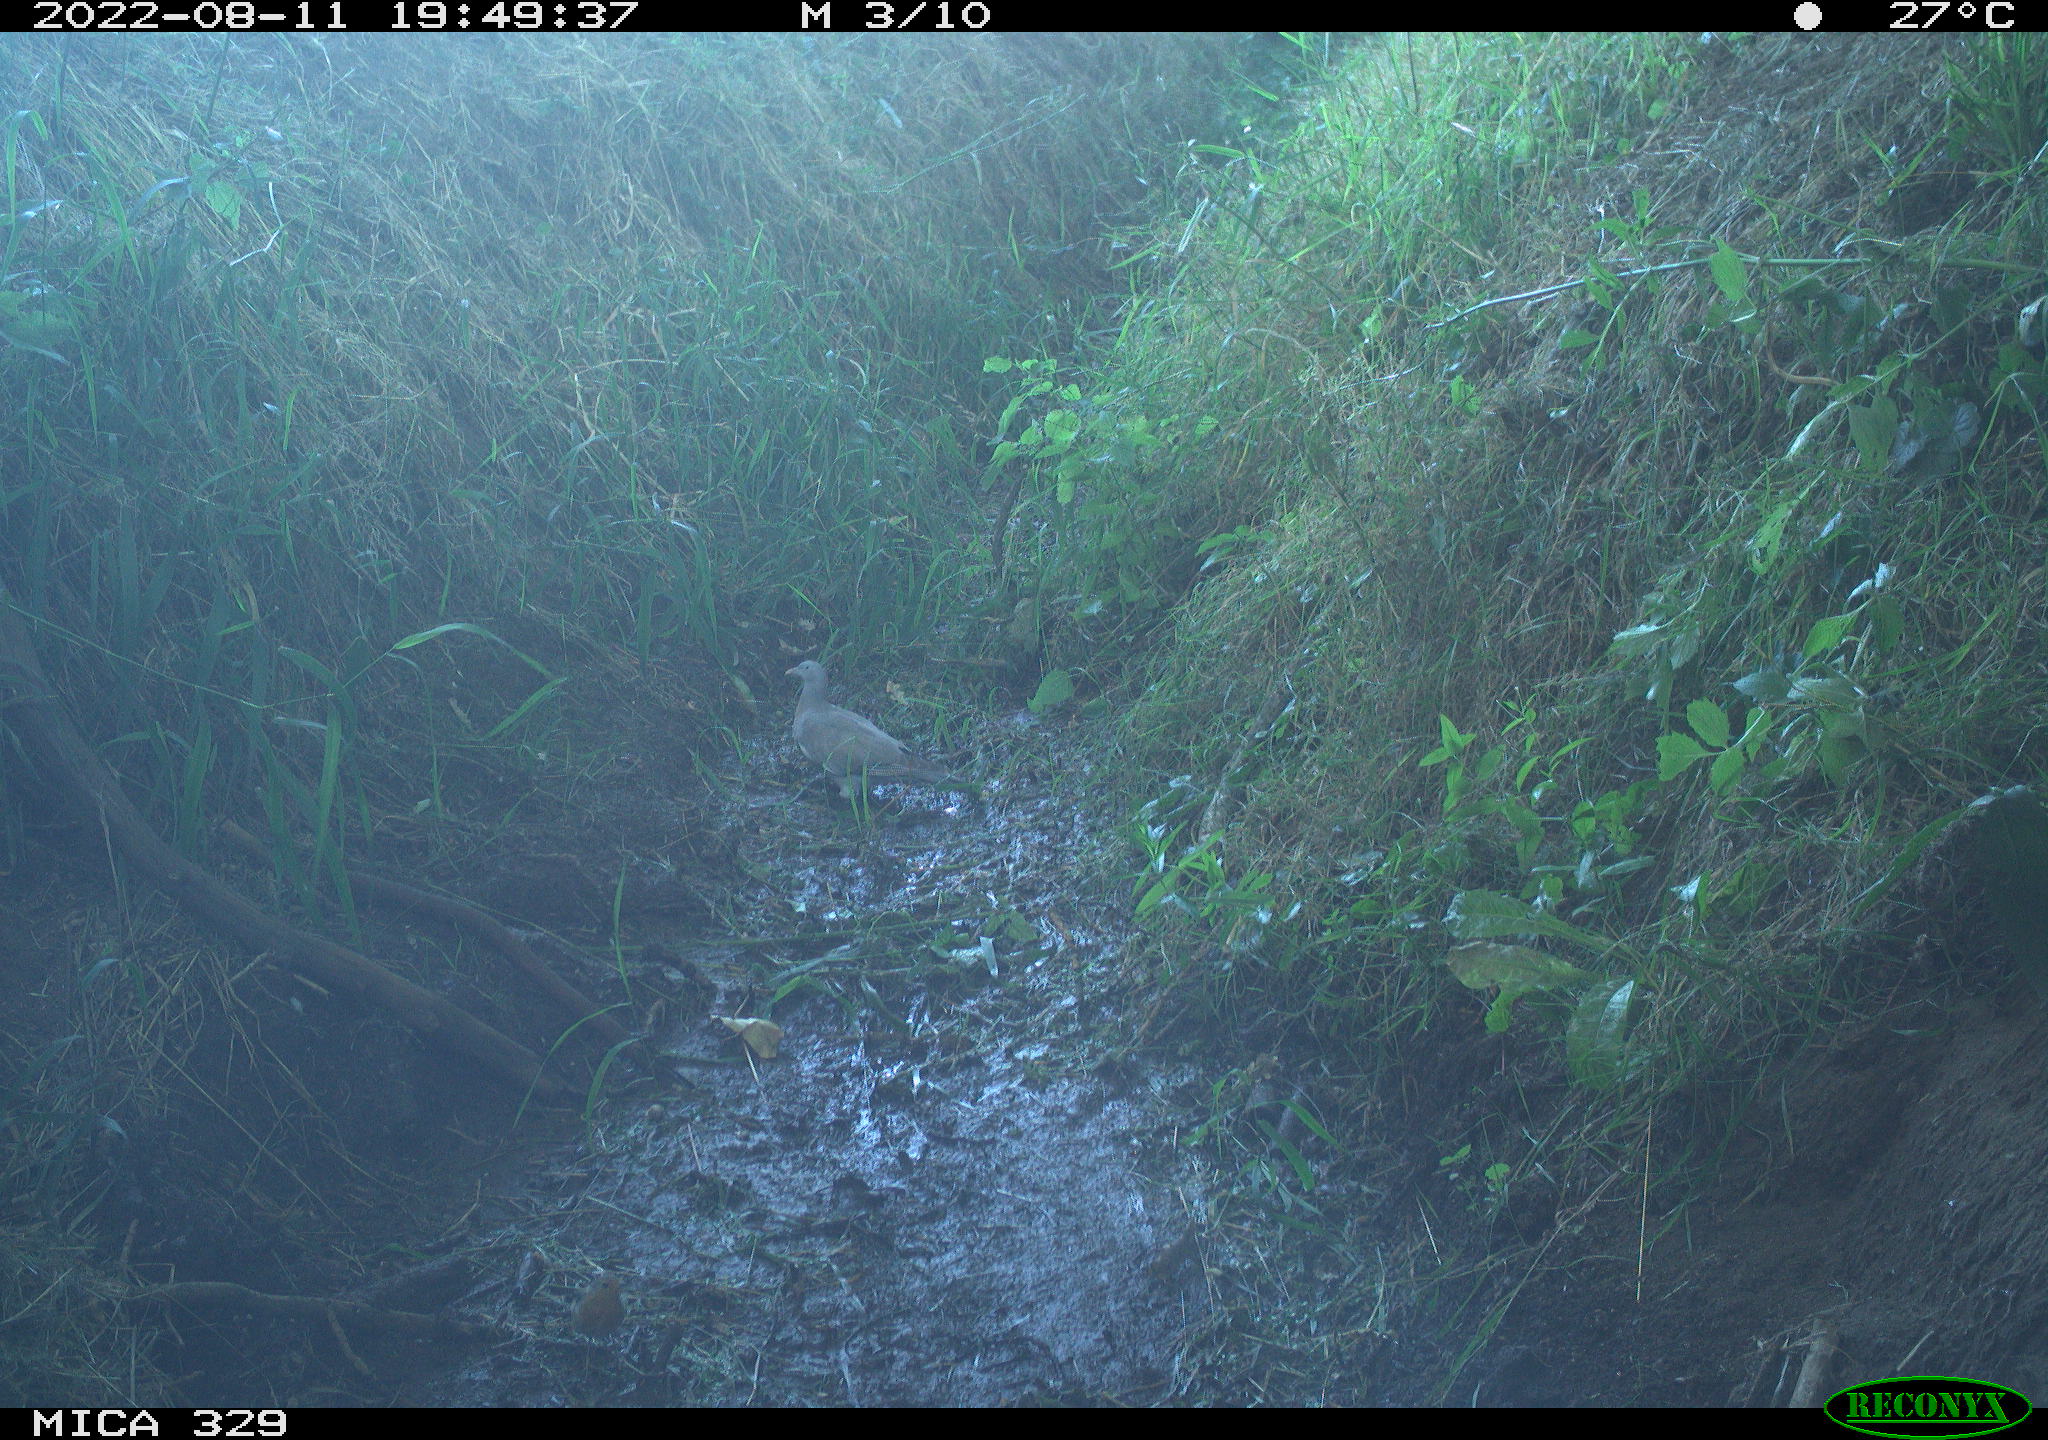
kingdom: Animalia
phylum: Chordata
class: Aves
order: Columbiformes
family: Columbidae
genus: Columba
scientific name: Columba palumbus
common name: Common wood pigeon
